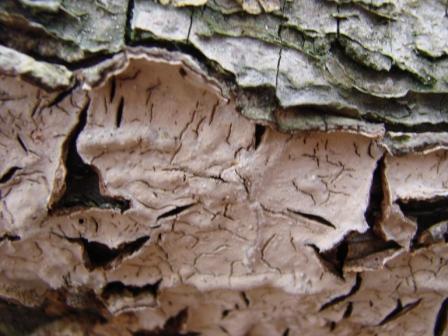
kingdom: Fungi
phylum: Basidiomycota
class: Agaricomycetes
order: Russulales
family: Stereaceae
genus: Stereum
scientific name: Stereum rugosum
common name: rynket lædersvamp
